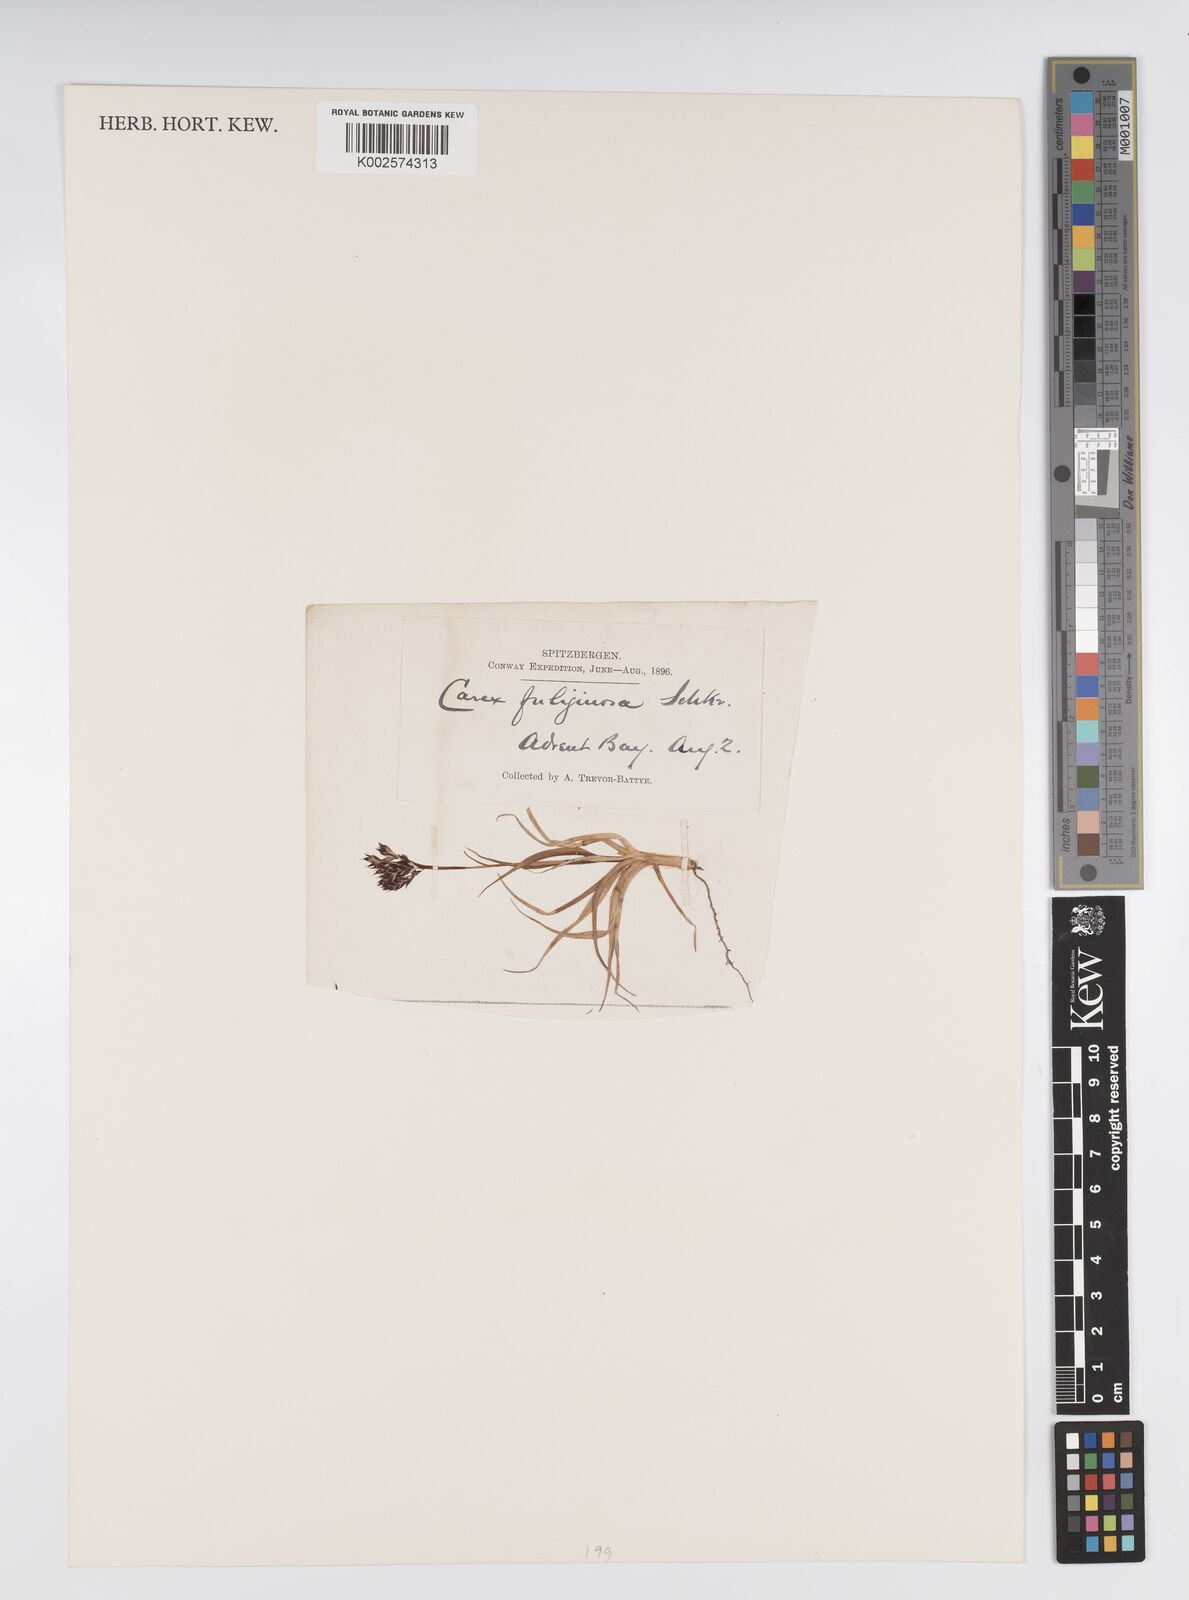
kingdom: Plantae
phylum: Tracheophyta
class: Liliopsida
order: Poales
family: Cyperaceae
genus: Carex
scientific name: Carex fuliginosa
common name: Few-flowered sedge
